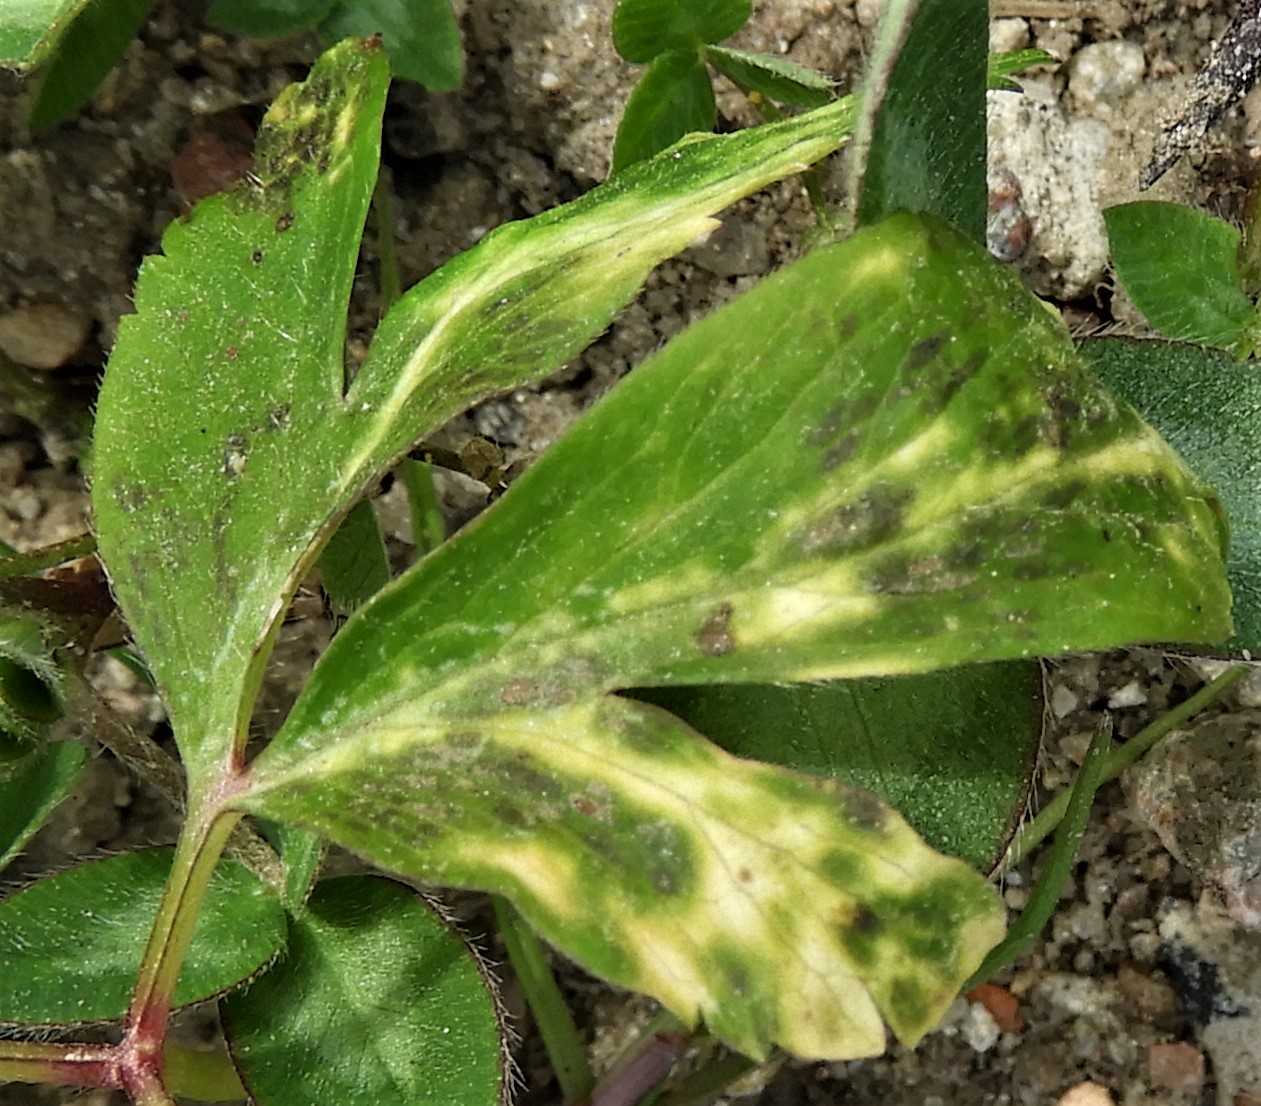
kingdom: Fungi
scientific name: Fungi
